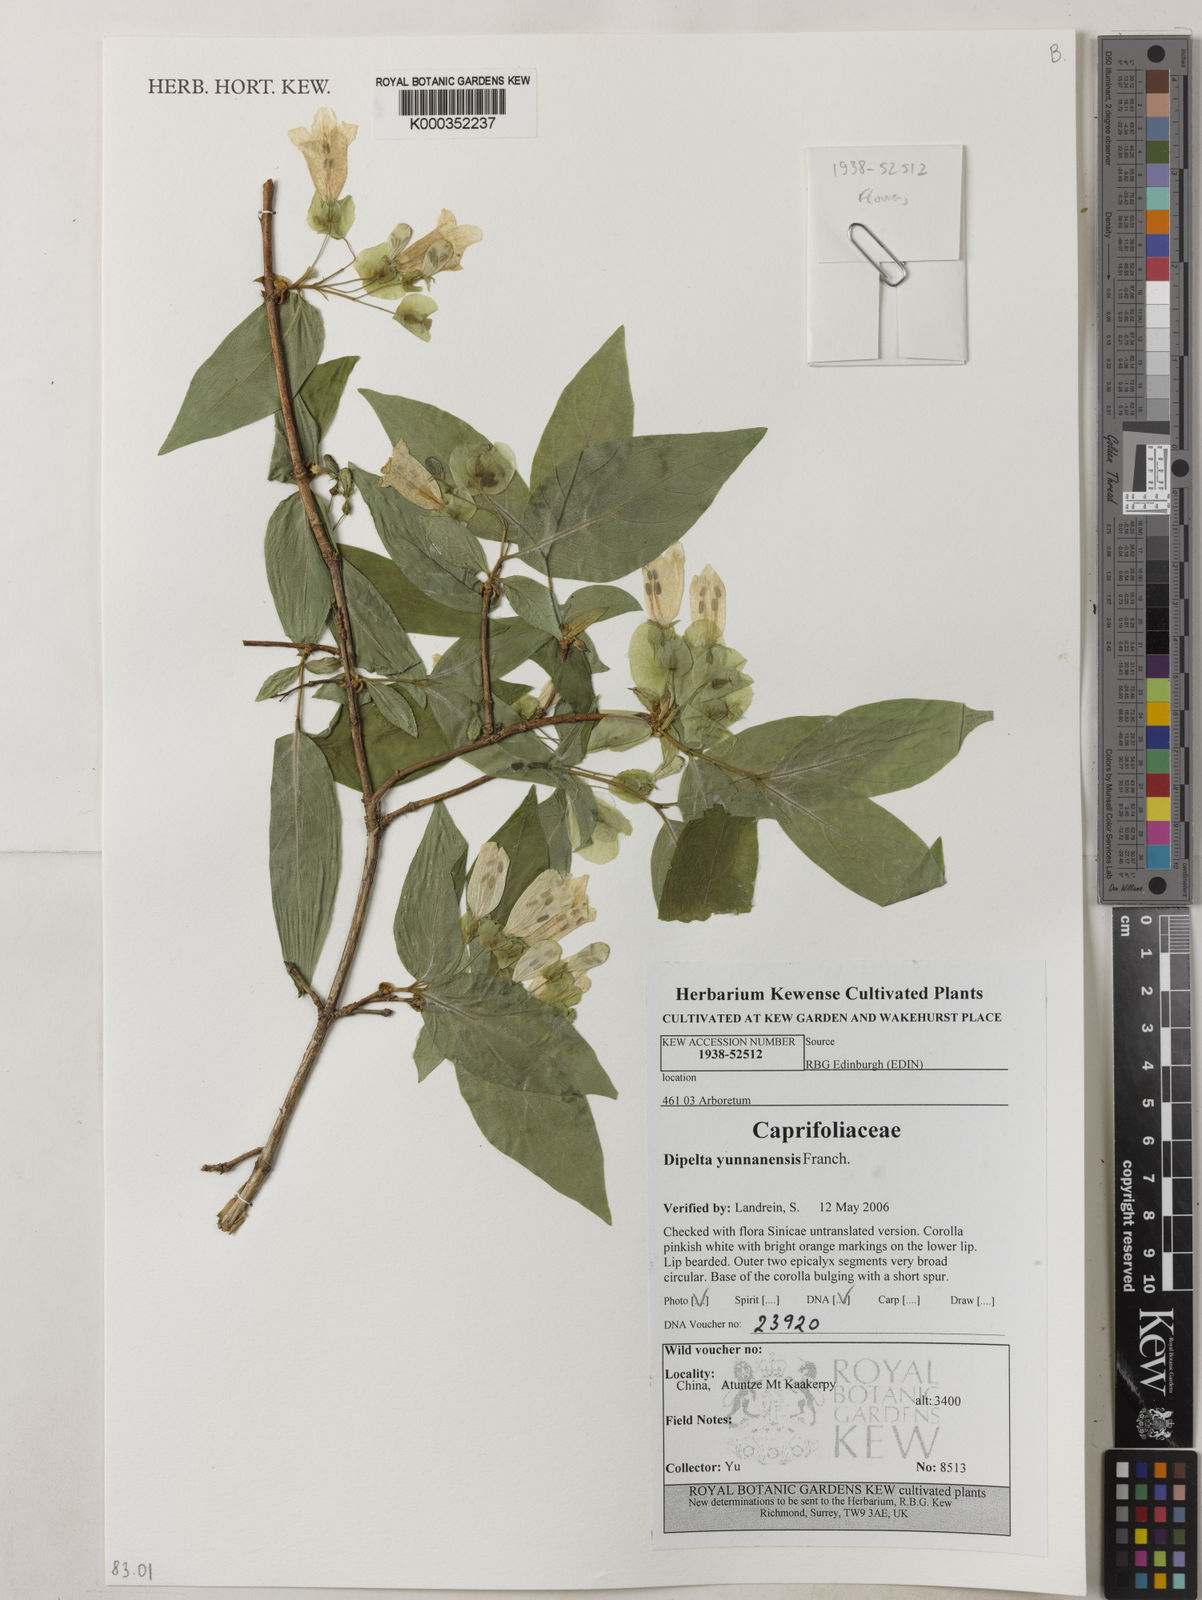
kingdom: Plantae
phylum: Tracheophyta
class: Magnoliopsida
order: Dipsacales
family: Caprifoliaceae
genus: Dipelta
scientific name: Dipelta yunnanensis
